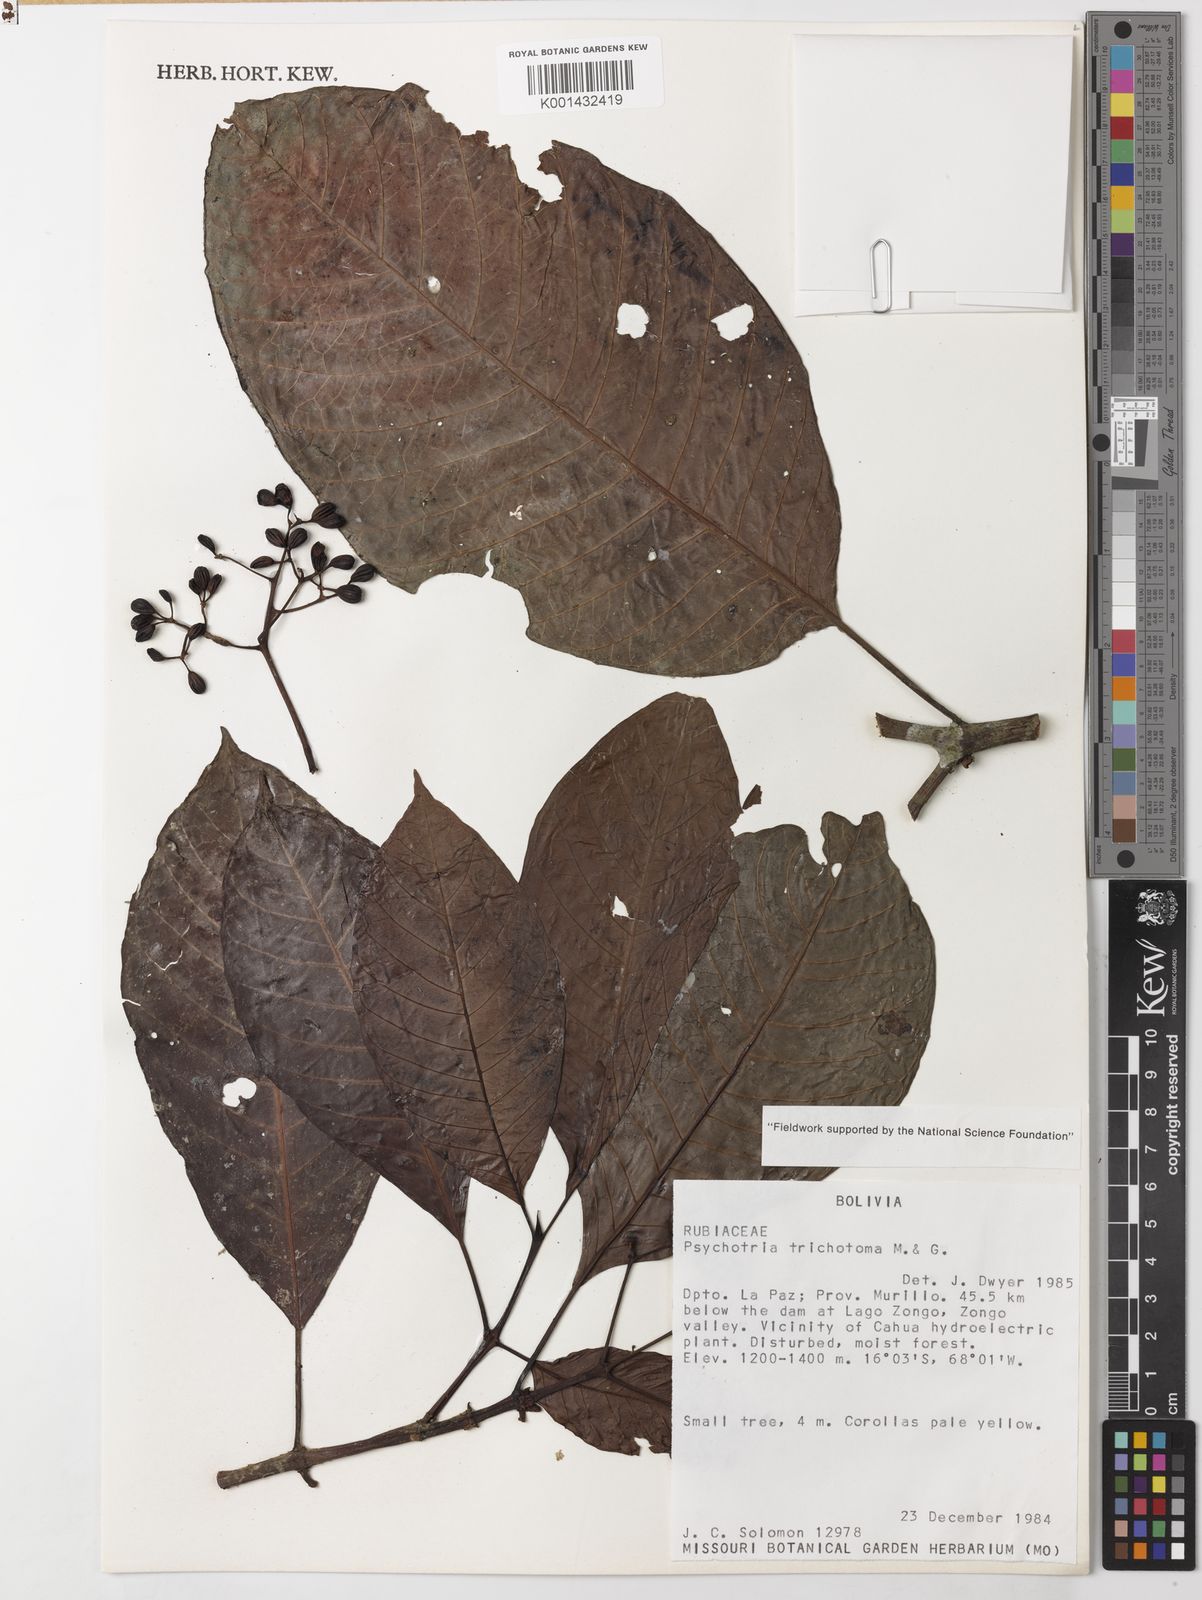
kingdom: Plantae
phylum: Tracheophyta
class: Magnoliopsida
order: Gentianales
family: Rubiaceae
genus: Psychotria
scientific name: Psychotria trichotoma
